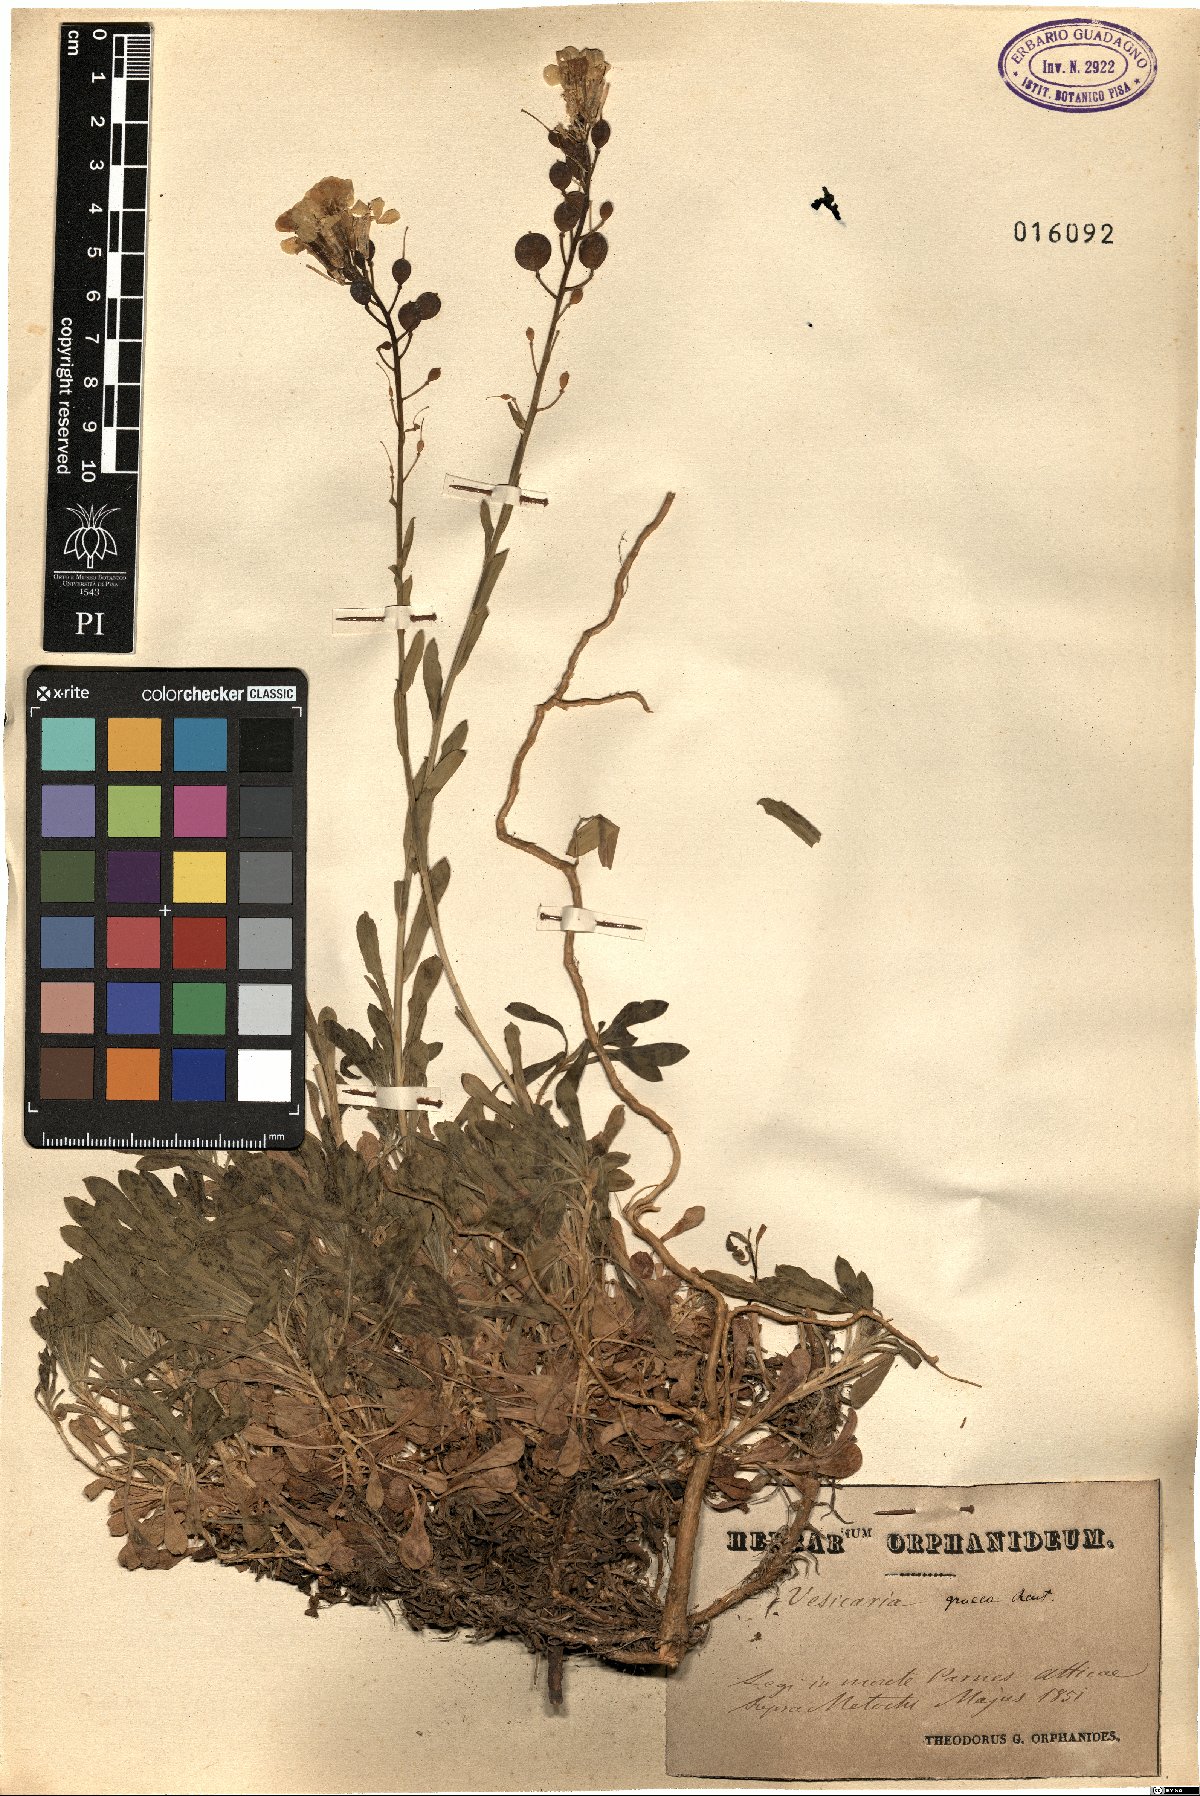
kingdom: Plantae
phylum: Tracheophyta
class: Magnoliopsida
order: Brassicales
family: Brassicaceae
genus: Alyssoides
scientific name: Alyssoides utriculata
